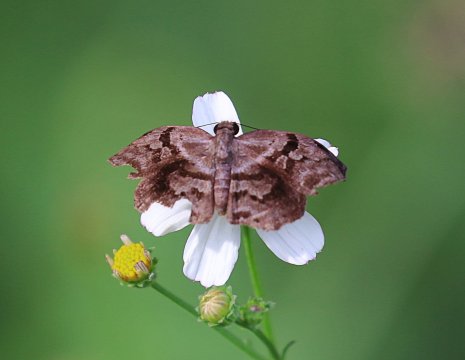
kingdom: Animalia
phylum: Arthropoda
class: Insecta
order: Lepidoptera
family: Hesperiidae
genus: Helias
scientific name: Helias phalaenoides
